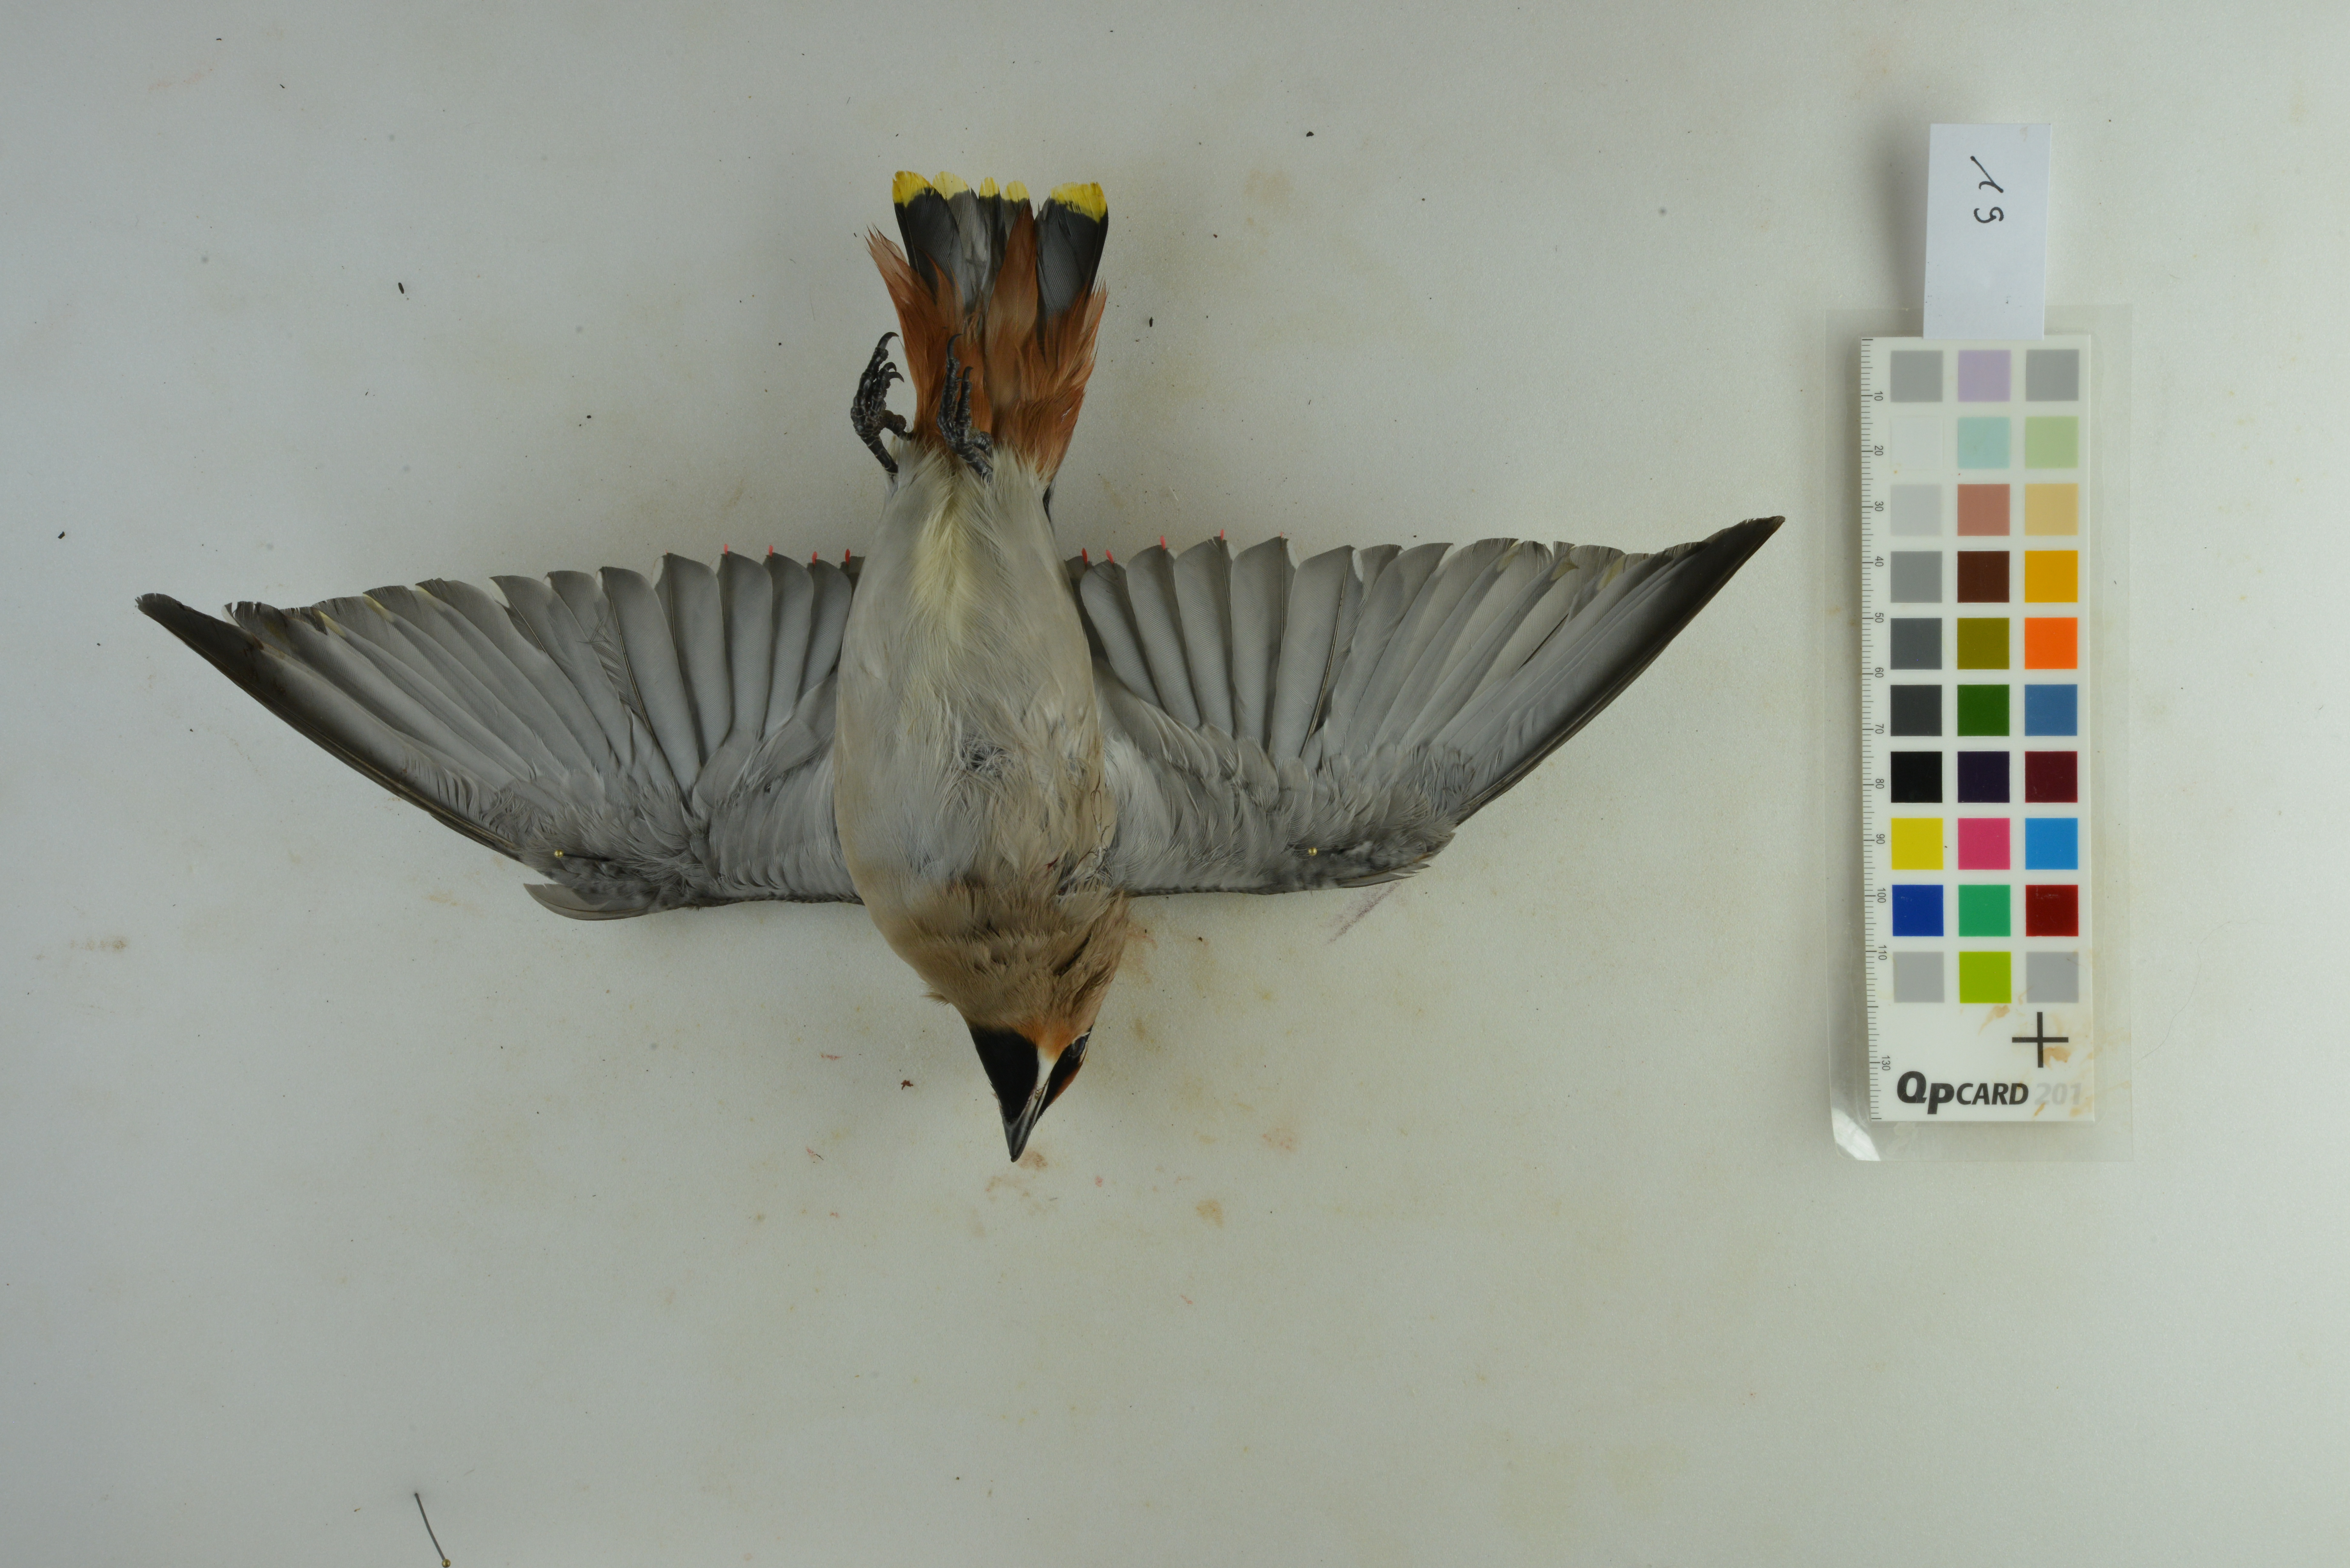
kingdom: Animalia
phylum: Chordata
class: Aves
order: Passeriformes
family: Bombycillidae
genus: Bombycilla
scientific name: Bombycilla garrulus
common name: Bohemian waxwing
